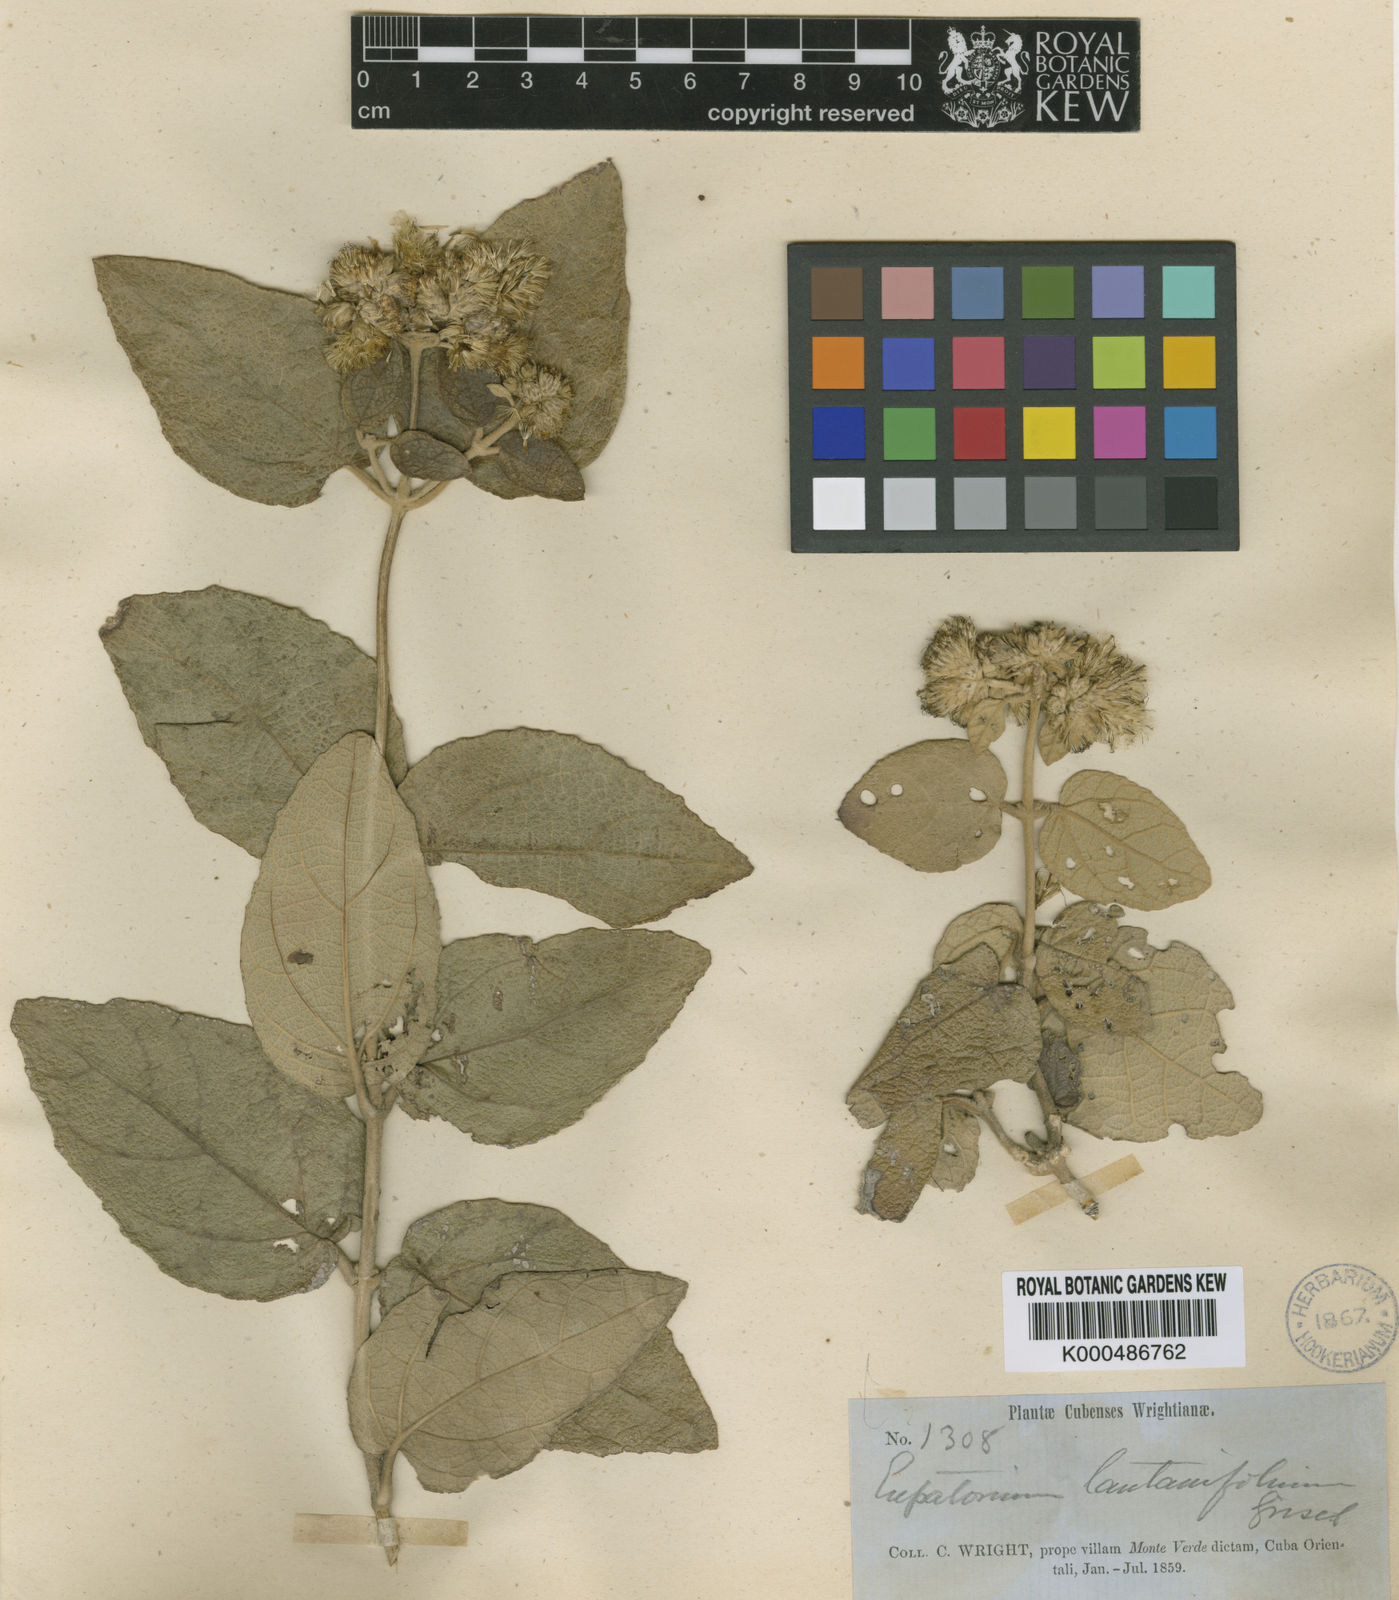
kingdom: Plantae
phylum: Tracheophyta
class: Magnoliopsida
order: Asterales
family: Asteraceae
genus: Grisebachianthus
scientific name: Grisebachianthus lantanifolius
